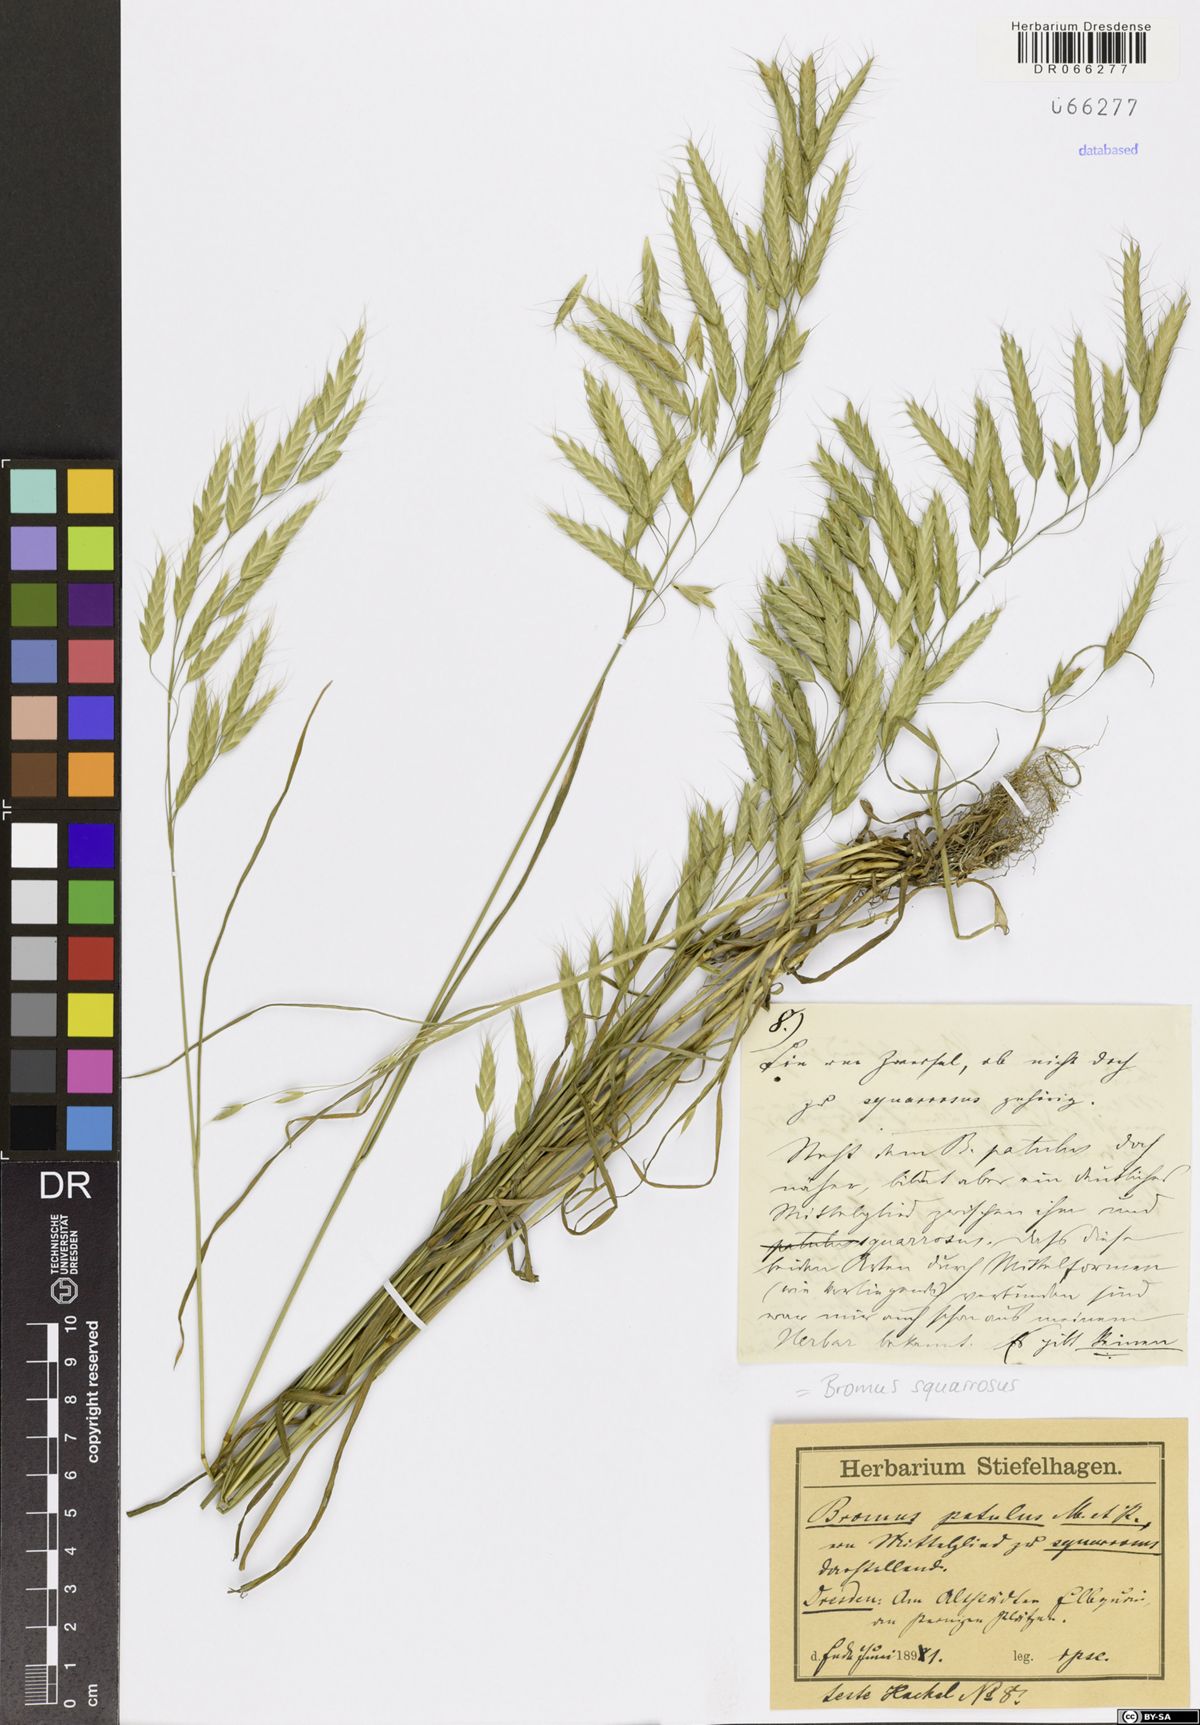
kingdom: Plantae
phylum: Tracheophyta
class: Liliopsida
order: Poales
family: Poaceae
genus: Bromus
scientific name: Bromus squarrosus
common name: Corn brome
